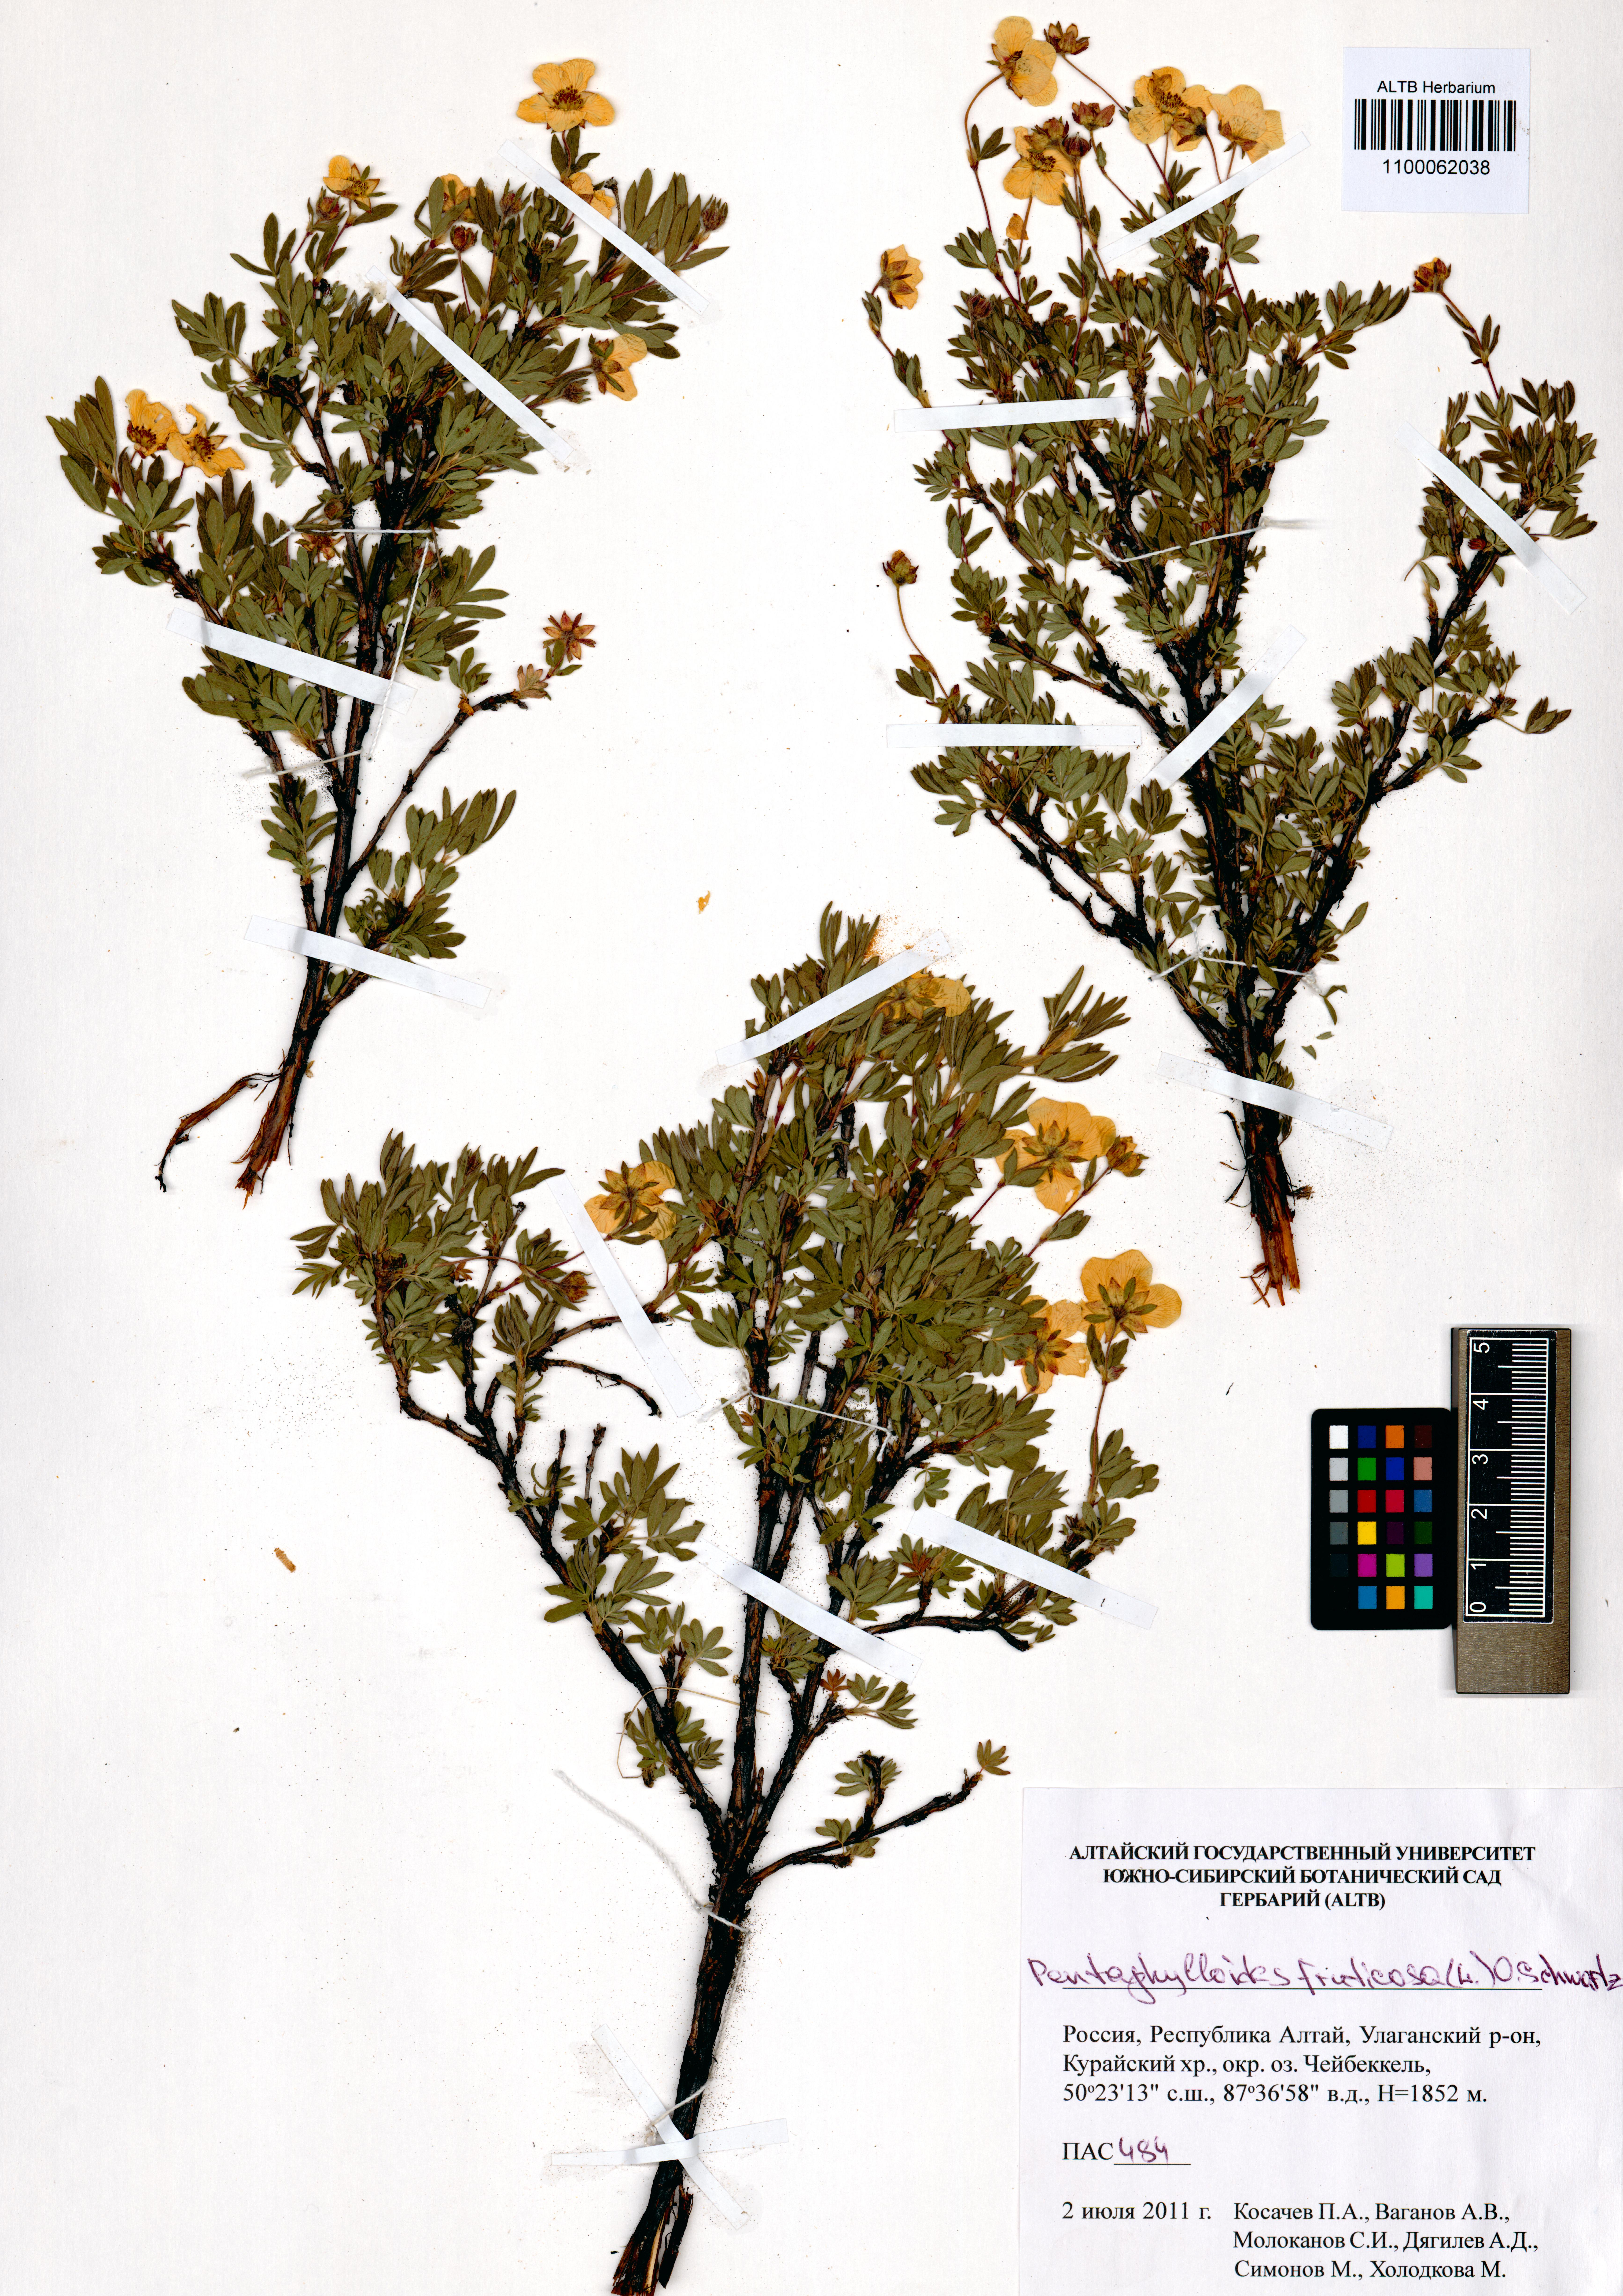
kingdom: Plantae
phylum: Tracheophyta
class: Magnoliopsida
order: Rosales
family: Rosaceae
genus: Dasiphora
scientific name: Dasiphora fruticosa
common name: Shrubby cinquefoil
